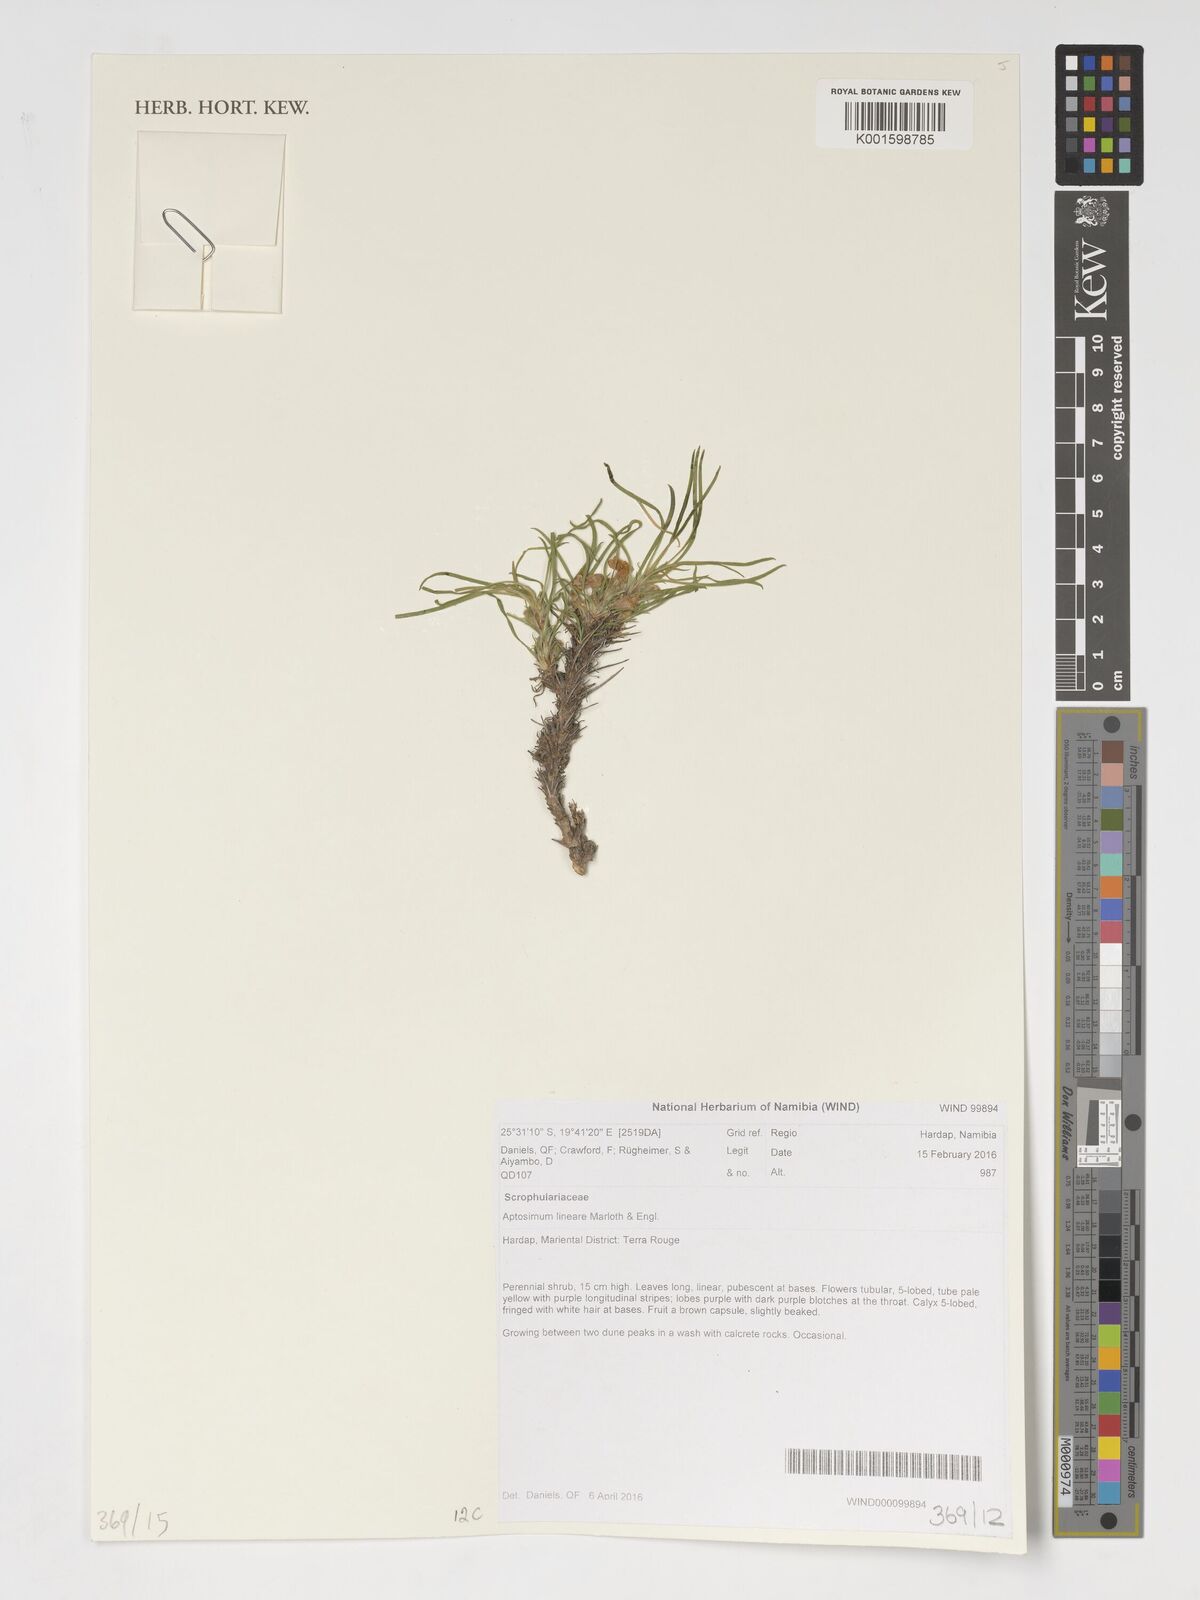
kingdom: Plantae
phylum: Tracheophyta
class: Magnoliopsida
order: Lamiales
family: Scrophulariaceae
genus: Aptosimum
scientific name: Aptosimum lineare
